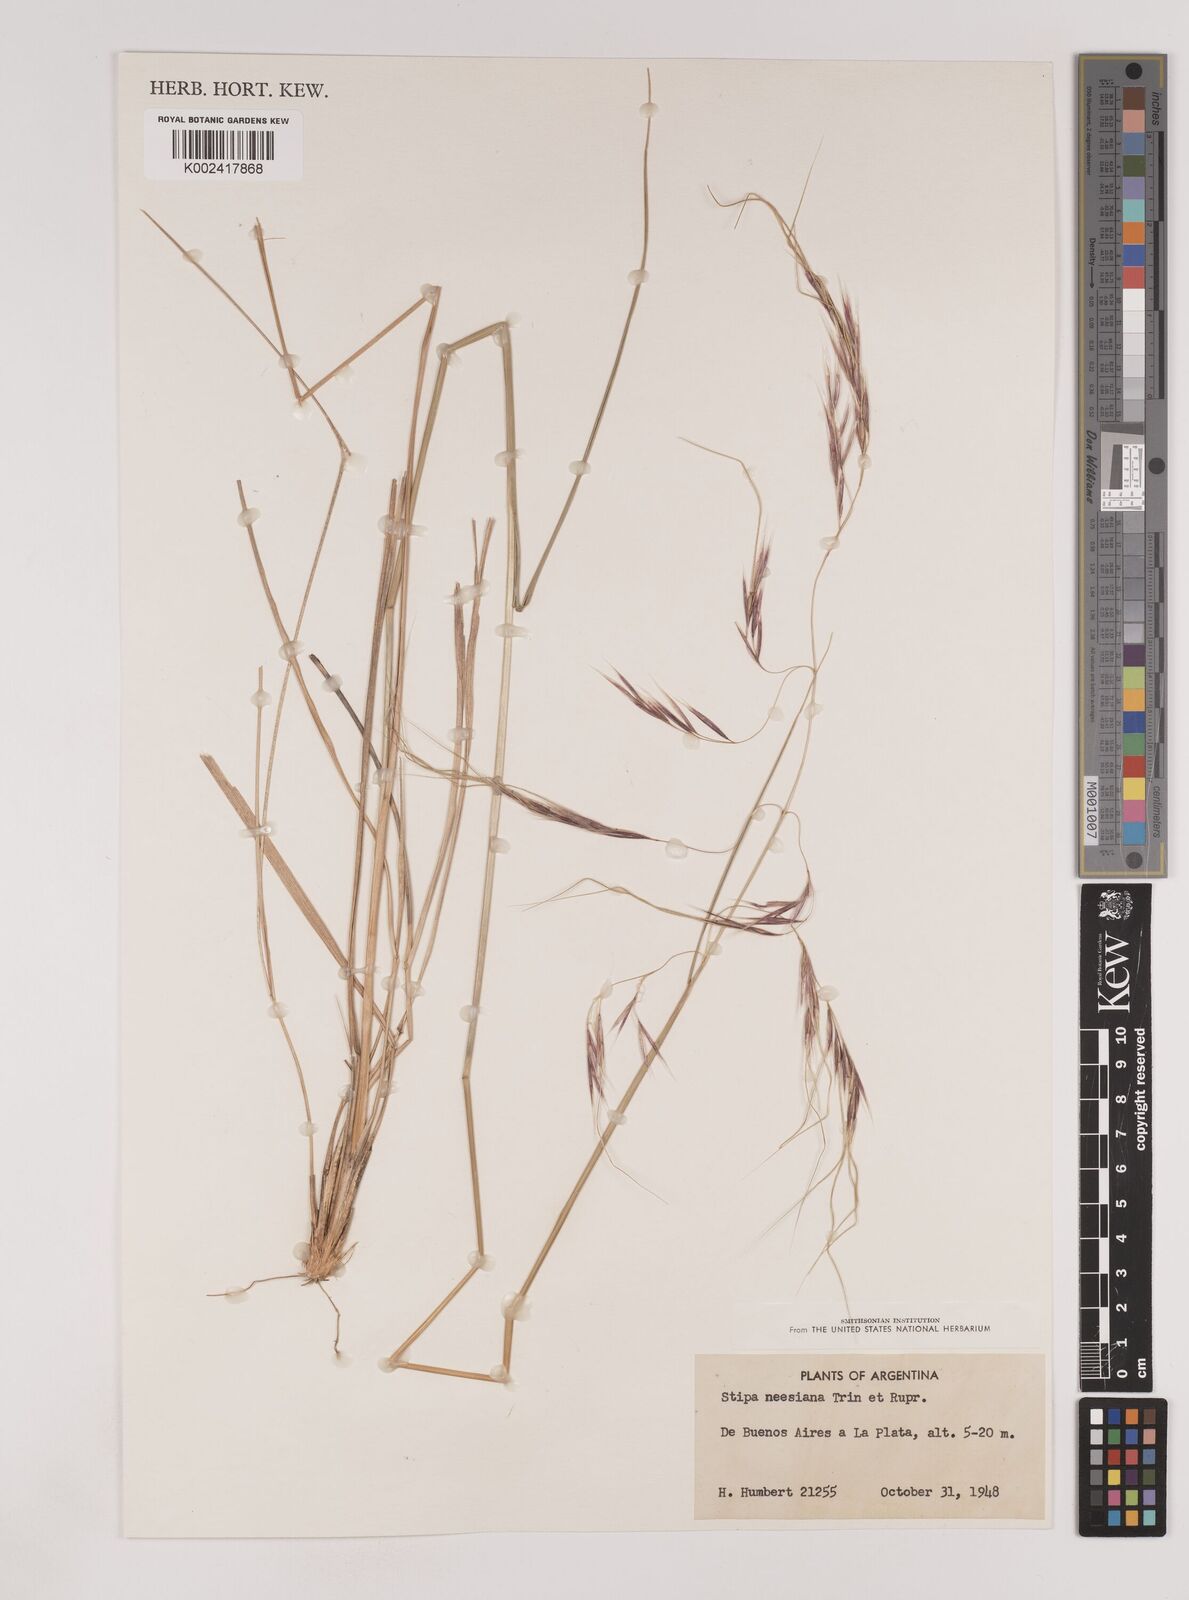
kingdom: Plantae
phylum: Tracheophyta
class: Liliopsida
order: Poales
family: Poaceae
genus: Nassella
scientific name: Nassella neesiana
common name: American needle-grass
